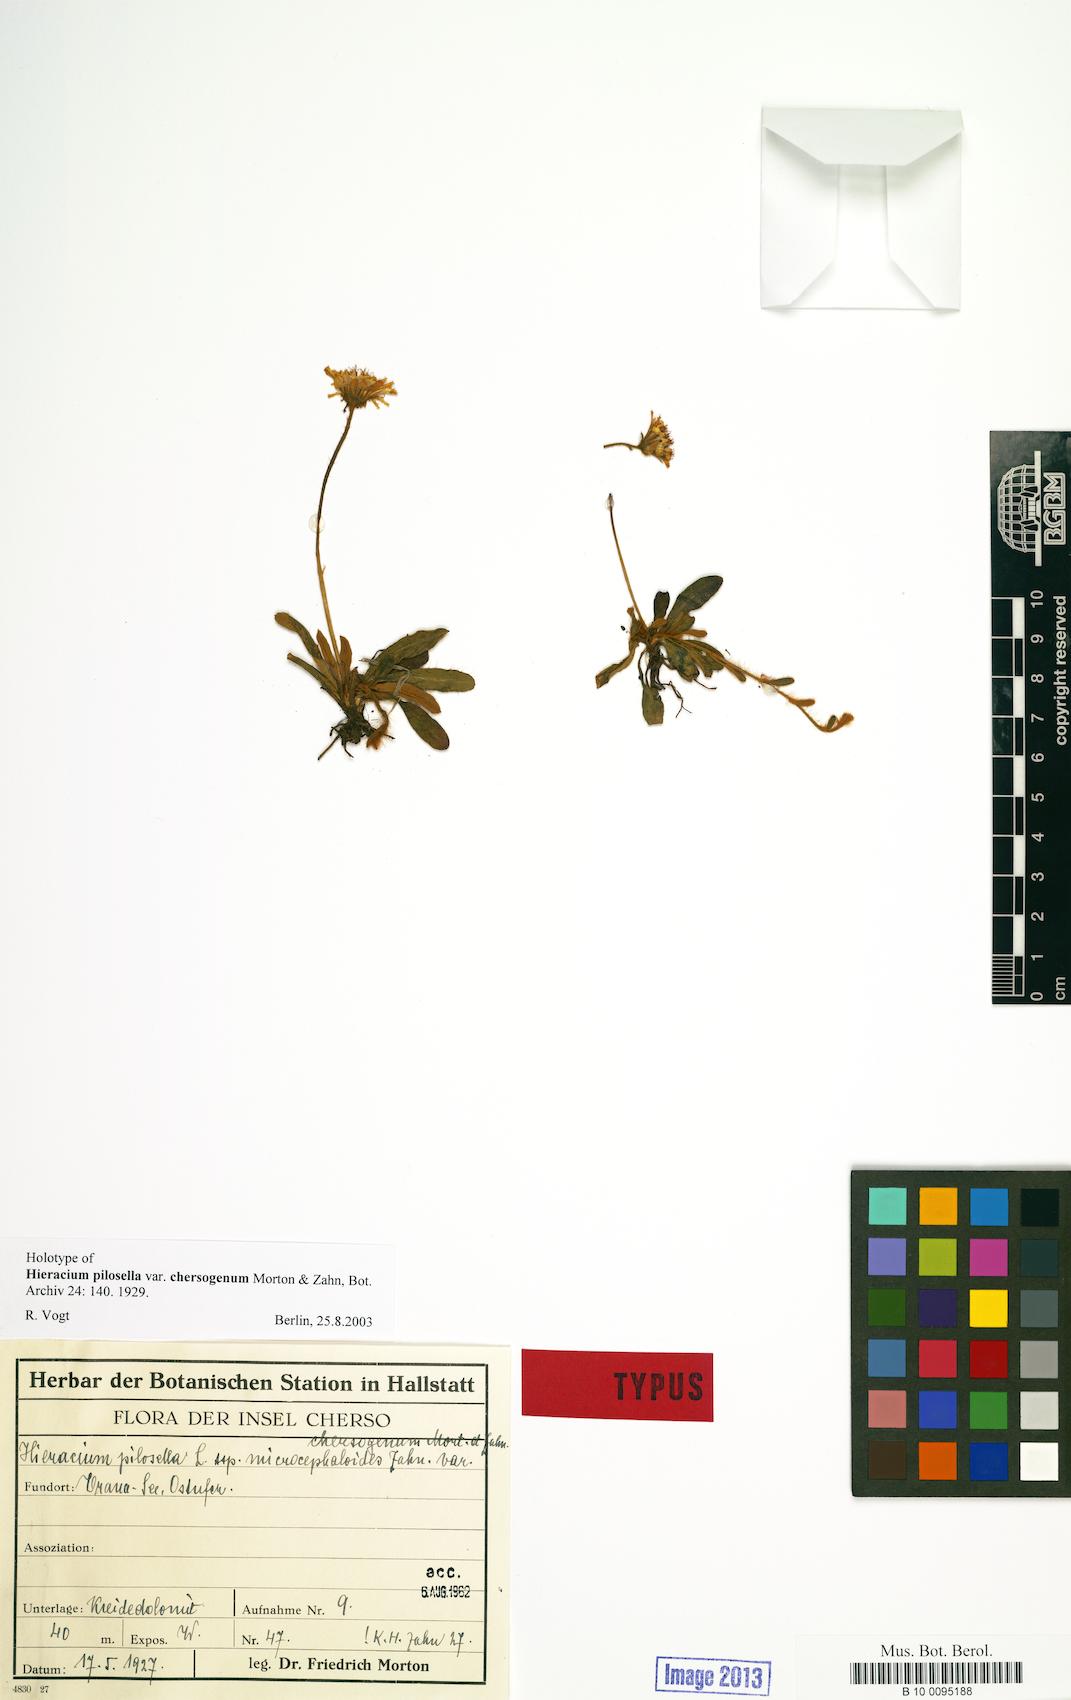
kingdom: Plantae
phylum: Tracheophyta
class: Magnoliopsida
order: Asterales
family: Asteraceae
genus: Pilosella
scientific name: Pilosella officinarum
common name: Mouse-ear hawkweed
